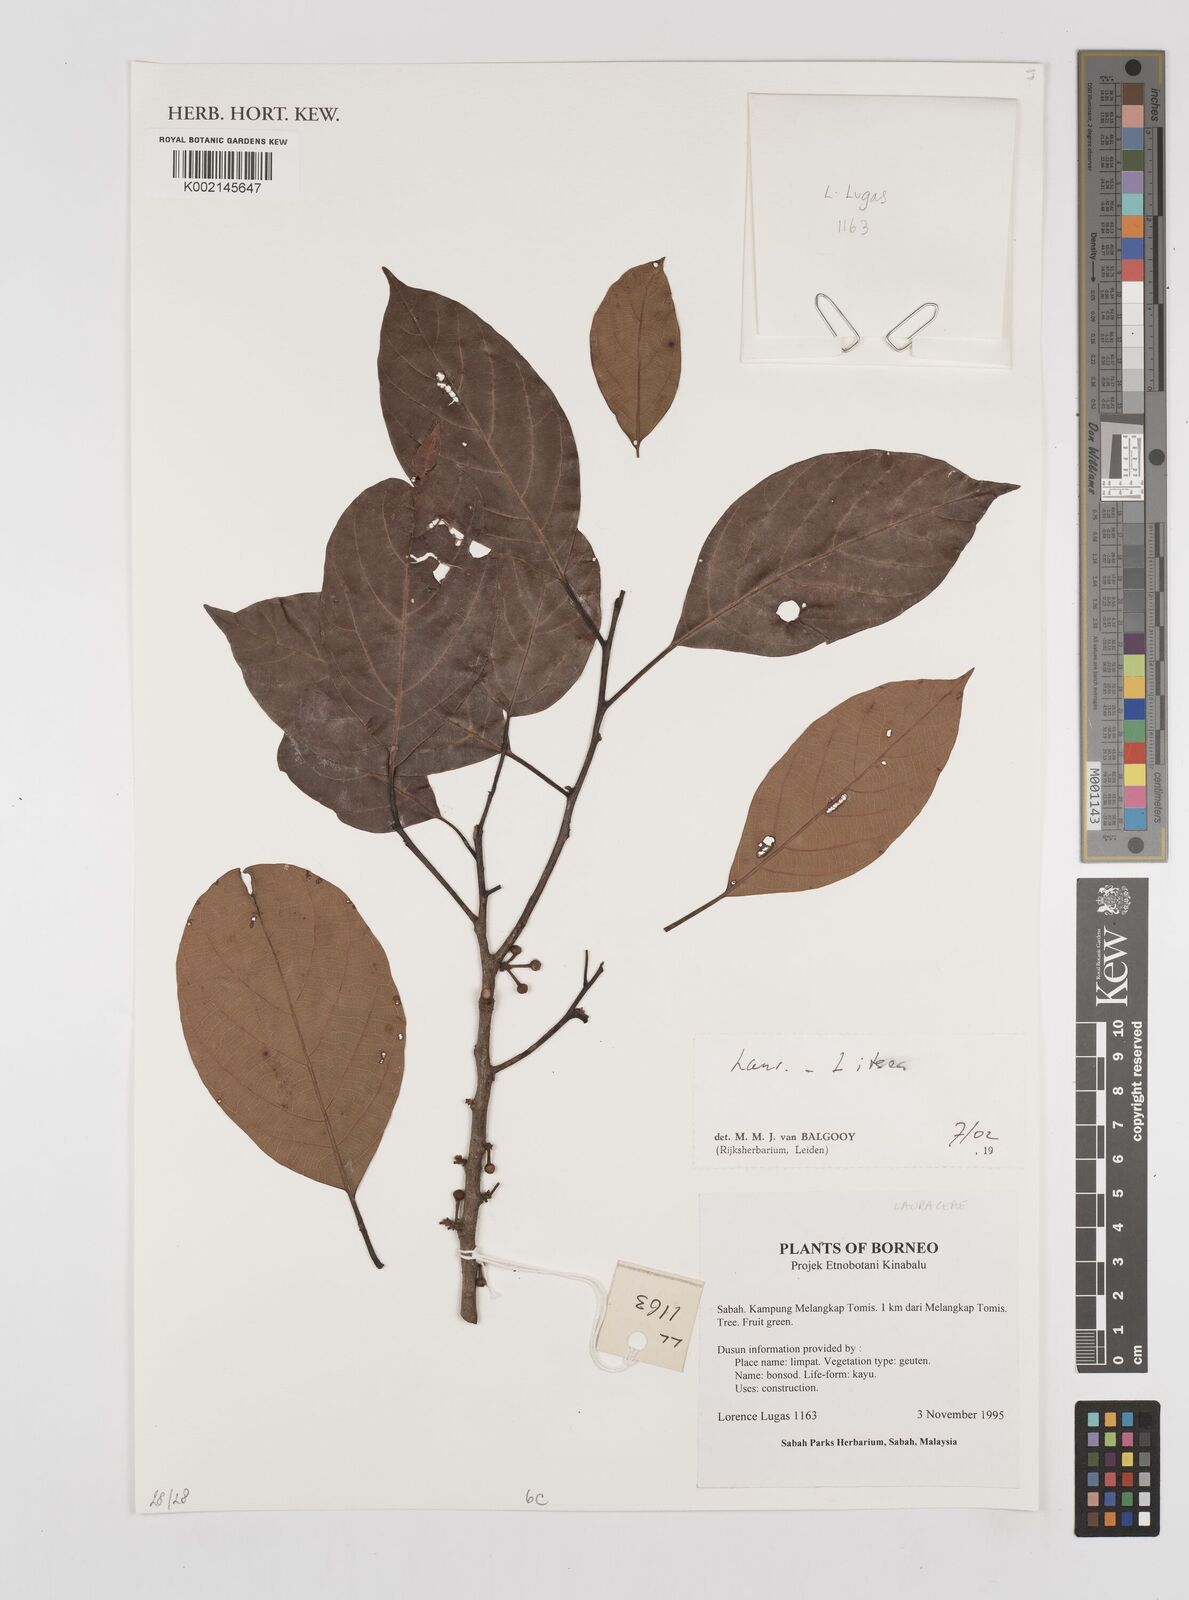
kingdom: Plantae
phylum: Tracheophyta
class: Magnoliopsida
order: Laurales
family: Lauraceae
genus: Litsea
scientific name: Litsea
